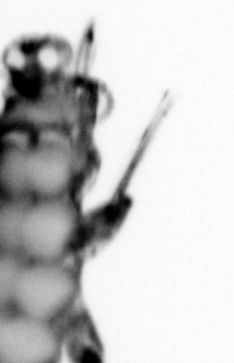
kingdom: Animalia
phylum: Annelida
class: Polychaeta
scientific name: Polychaeta
